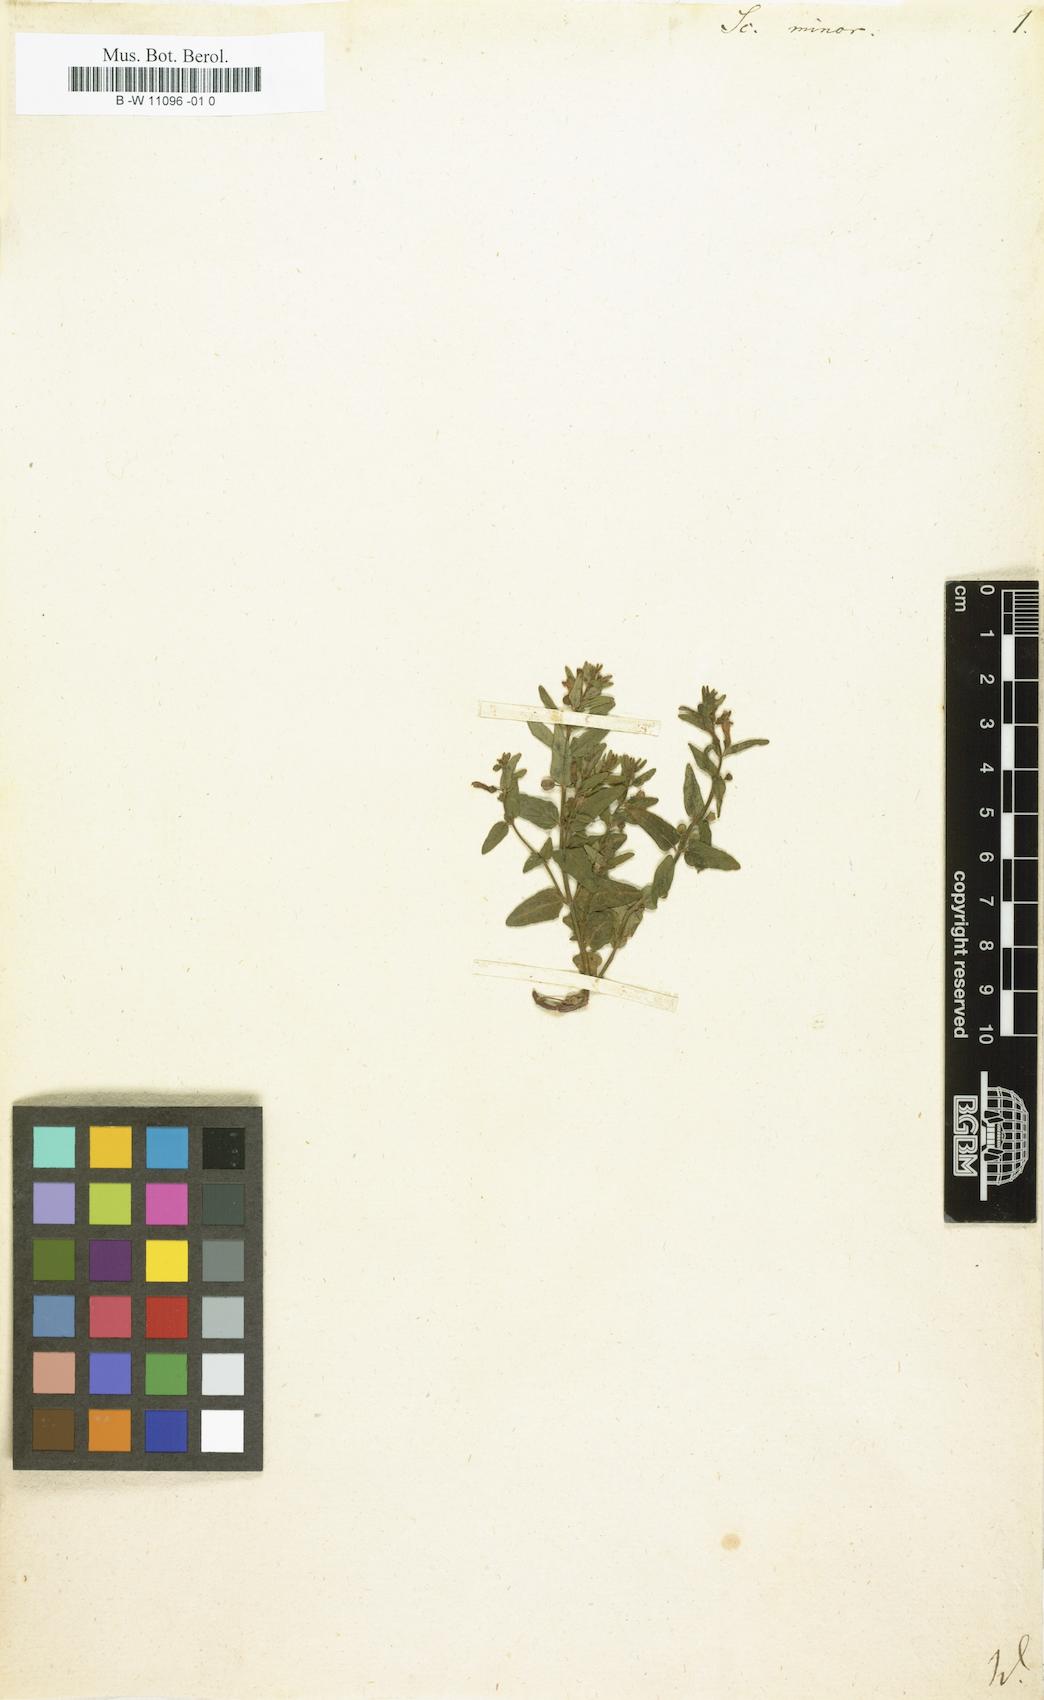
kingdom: Plantae
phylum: Tracheophyta
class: Magnoliopsida
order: Lamiales
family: Lamiaceae
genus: Scutellaria
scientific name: Scutellaria minor
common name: Lesser skullcap
